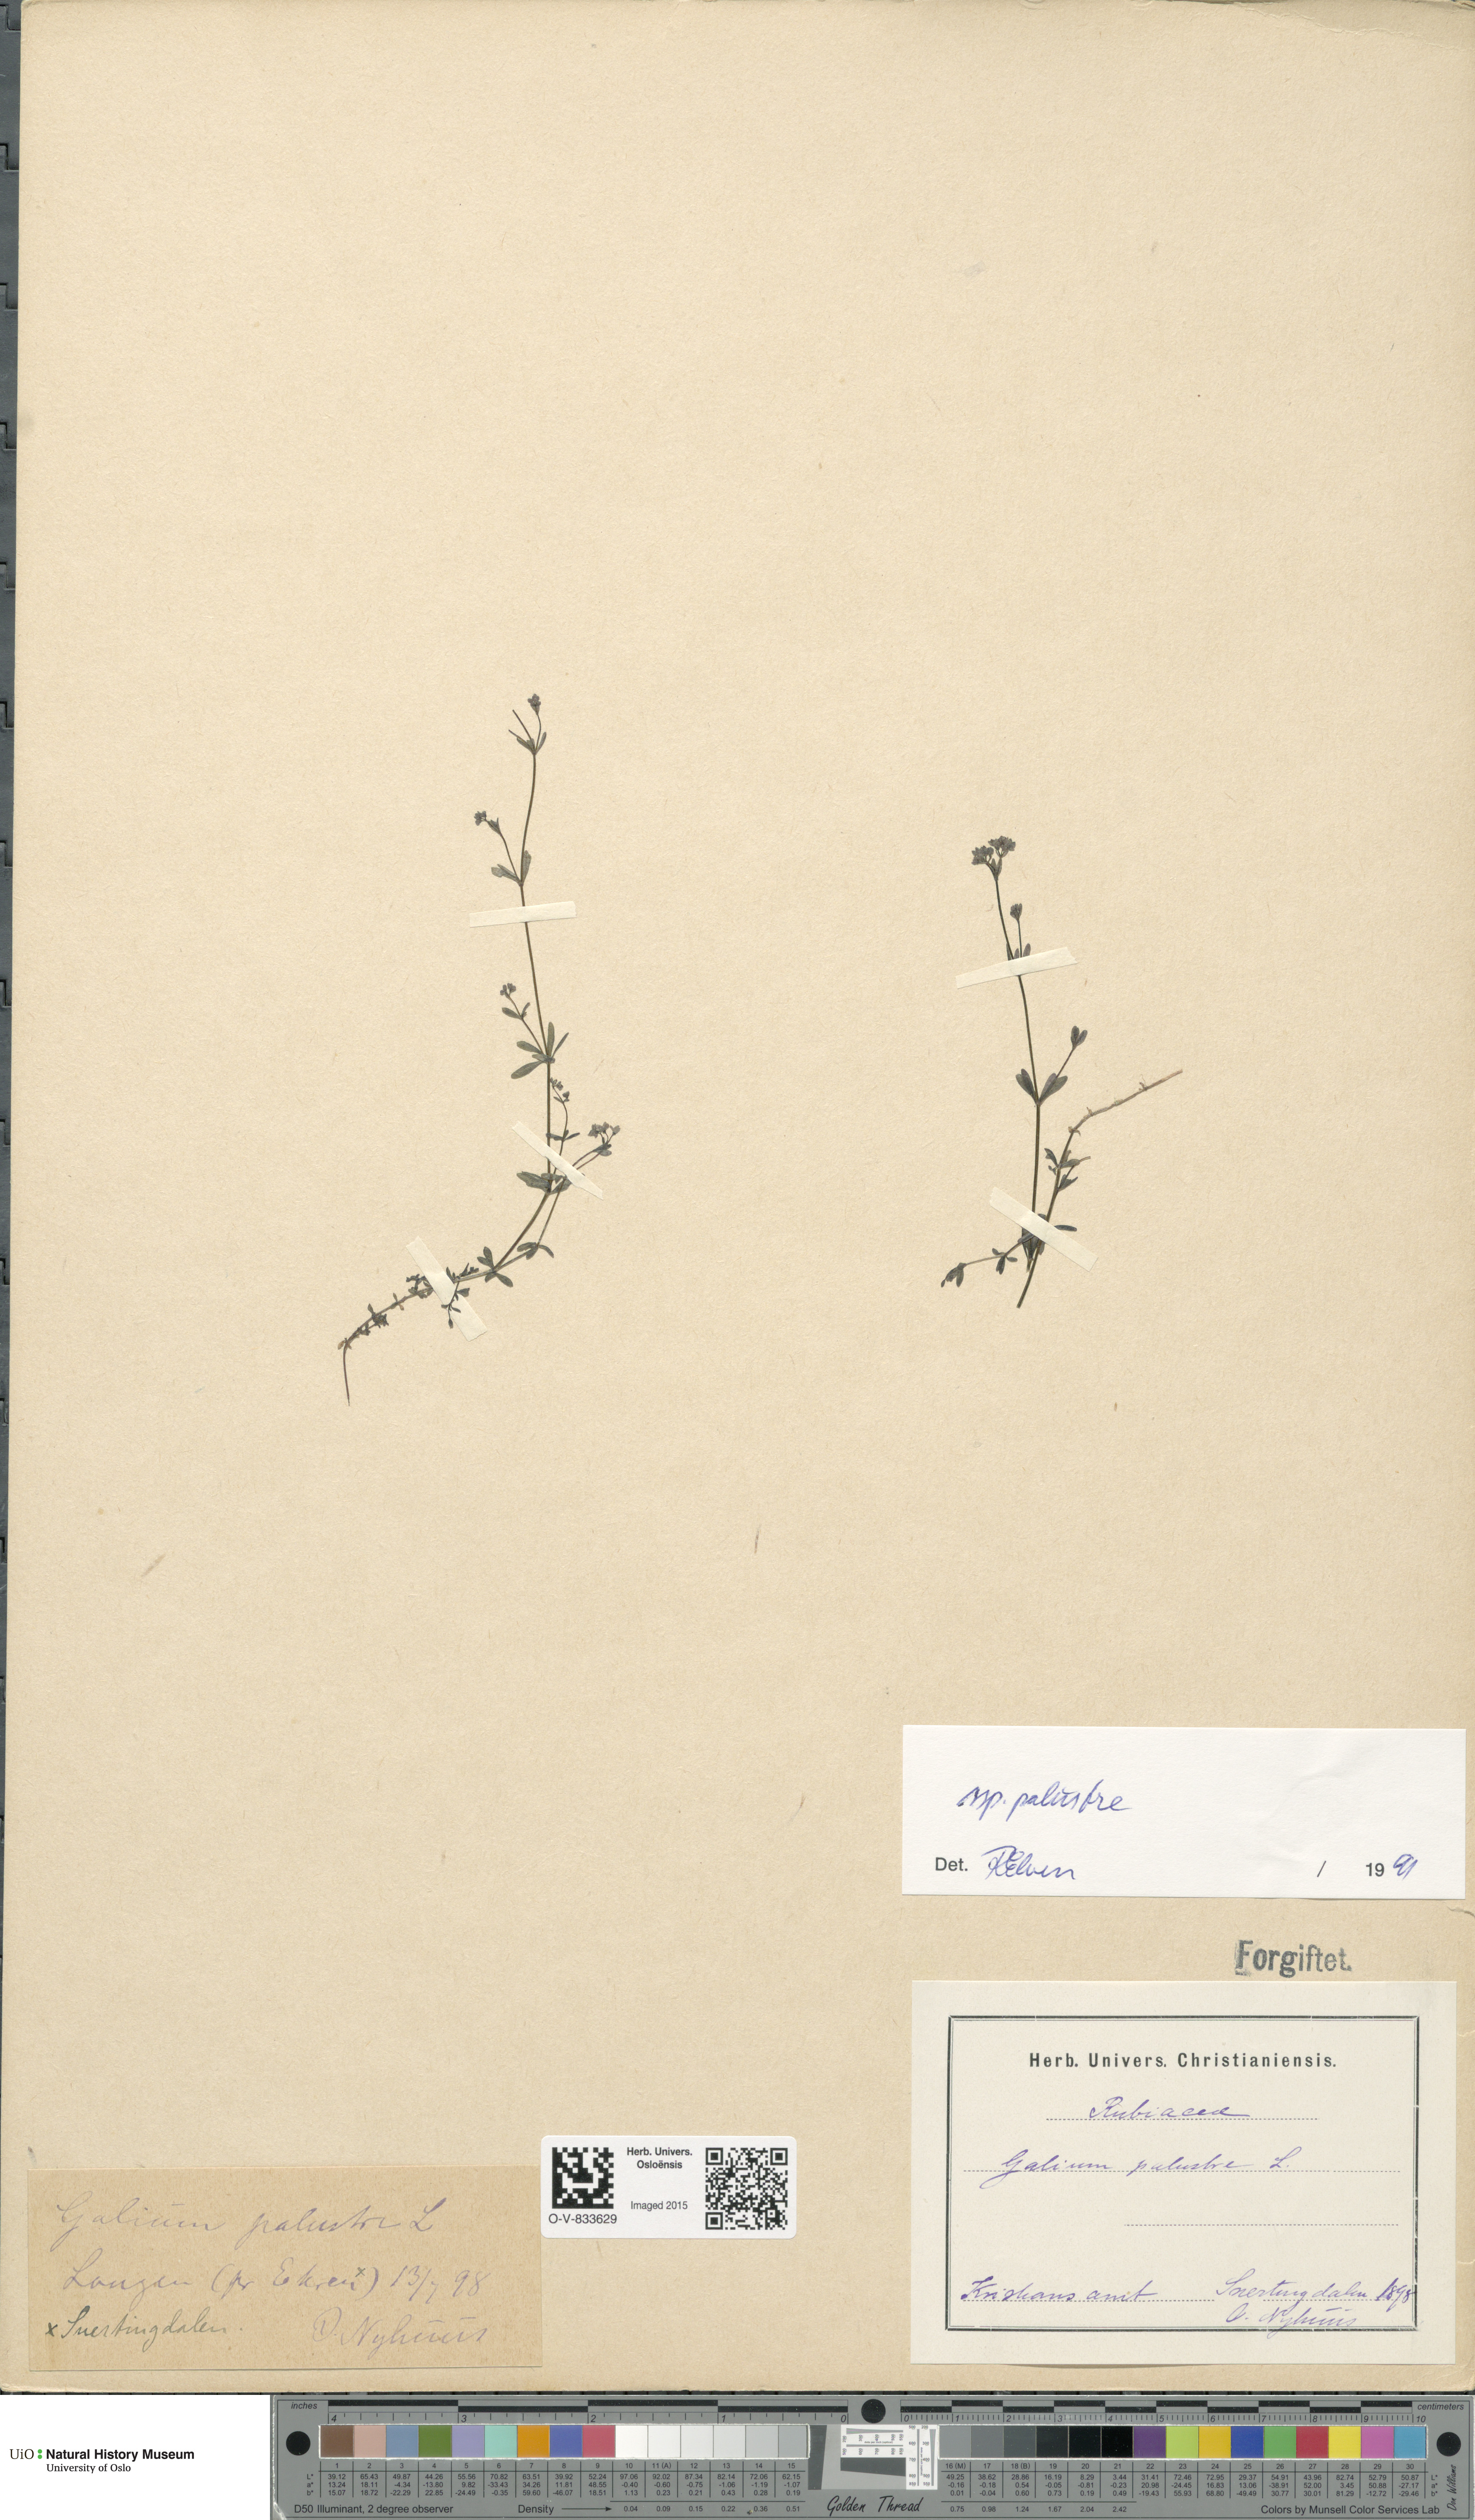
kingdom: Plantae
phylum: Tracheophyta
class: Magnoliopsida
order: Gentianales
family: Rubiaceae
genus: Galium
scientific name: Galium palustre
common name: Common marsh-bedstraw
